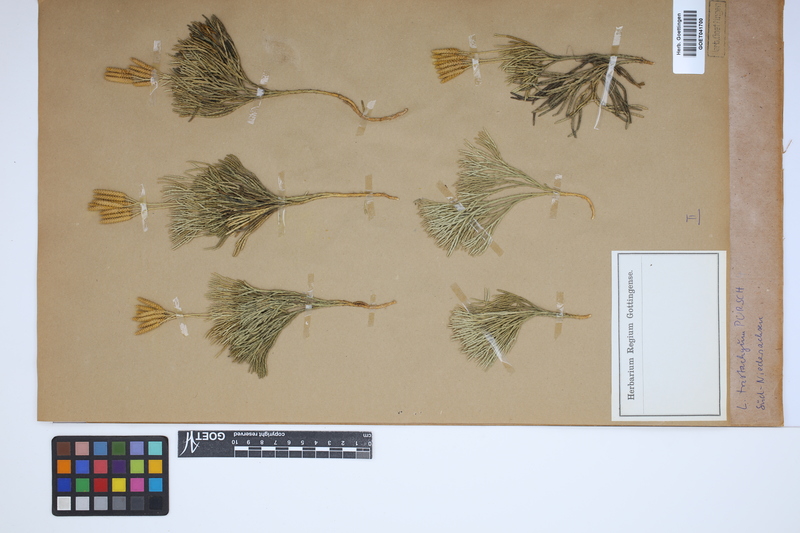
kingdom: Plantae
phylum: Tracheophyta
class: Lycopodiopsida
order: Lycopodiales
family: Lycopodiaceae
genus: Diphasiastrum
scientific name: Diphasiastrum tristachyum
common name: Blue ground-cedar
